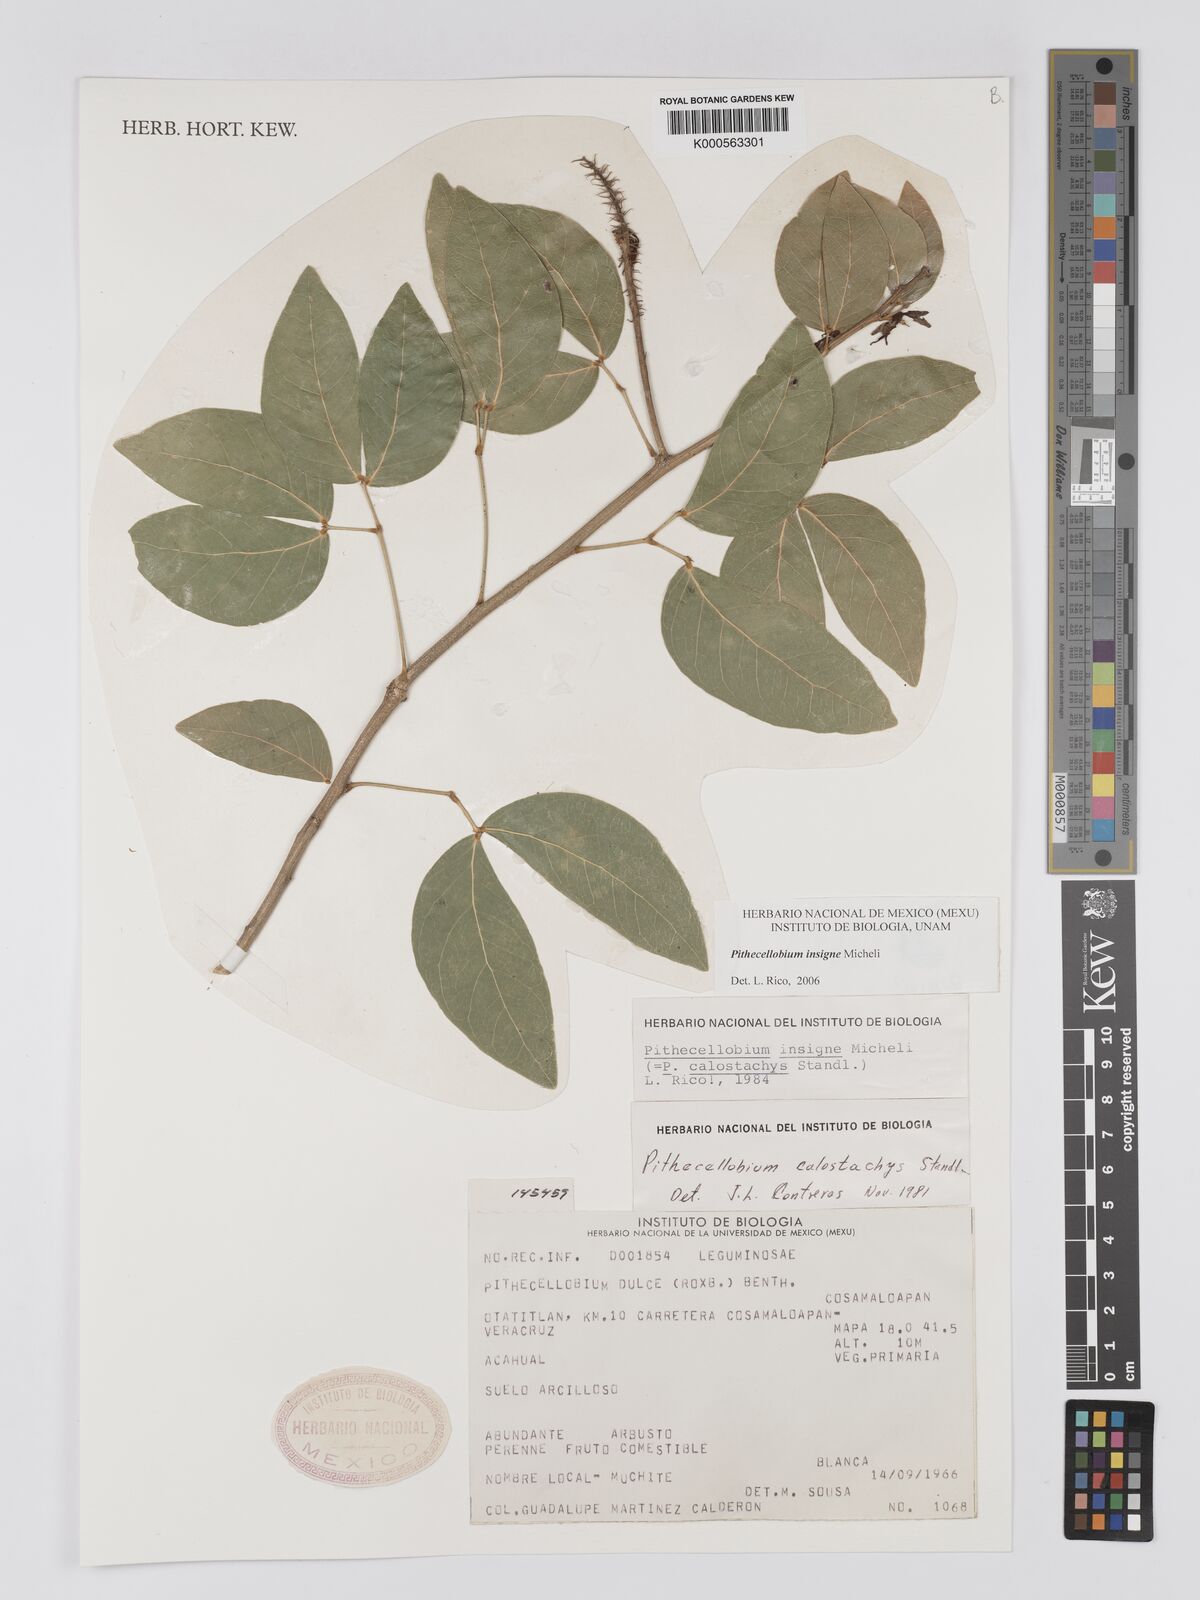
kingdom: Plantae
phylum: Tracheophyta
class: Magnoliopsida
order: Fabales
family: Fabaceae
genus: Pithecellobium
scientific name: Pithecellobium lanceolatum
